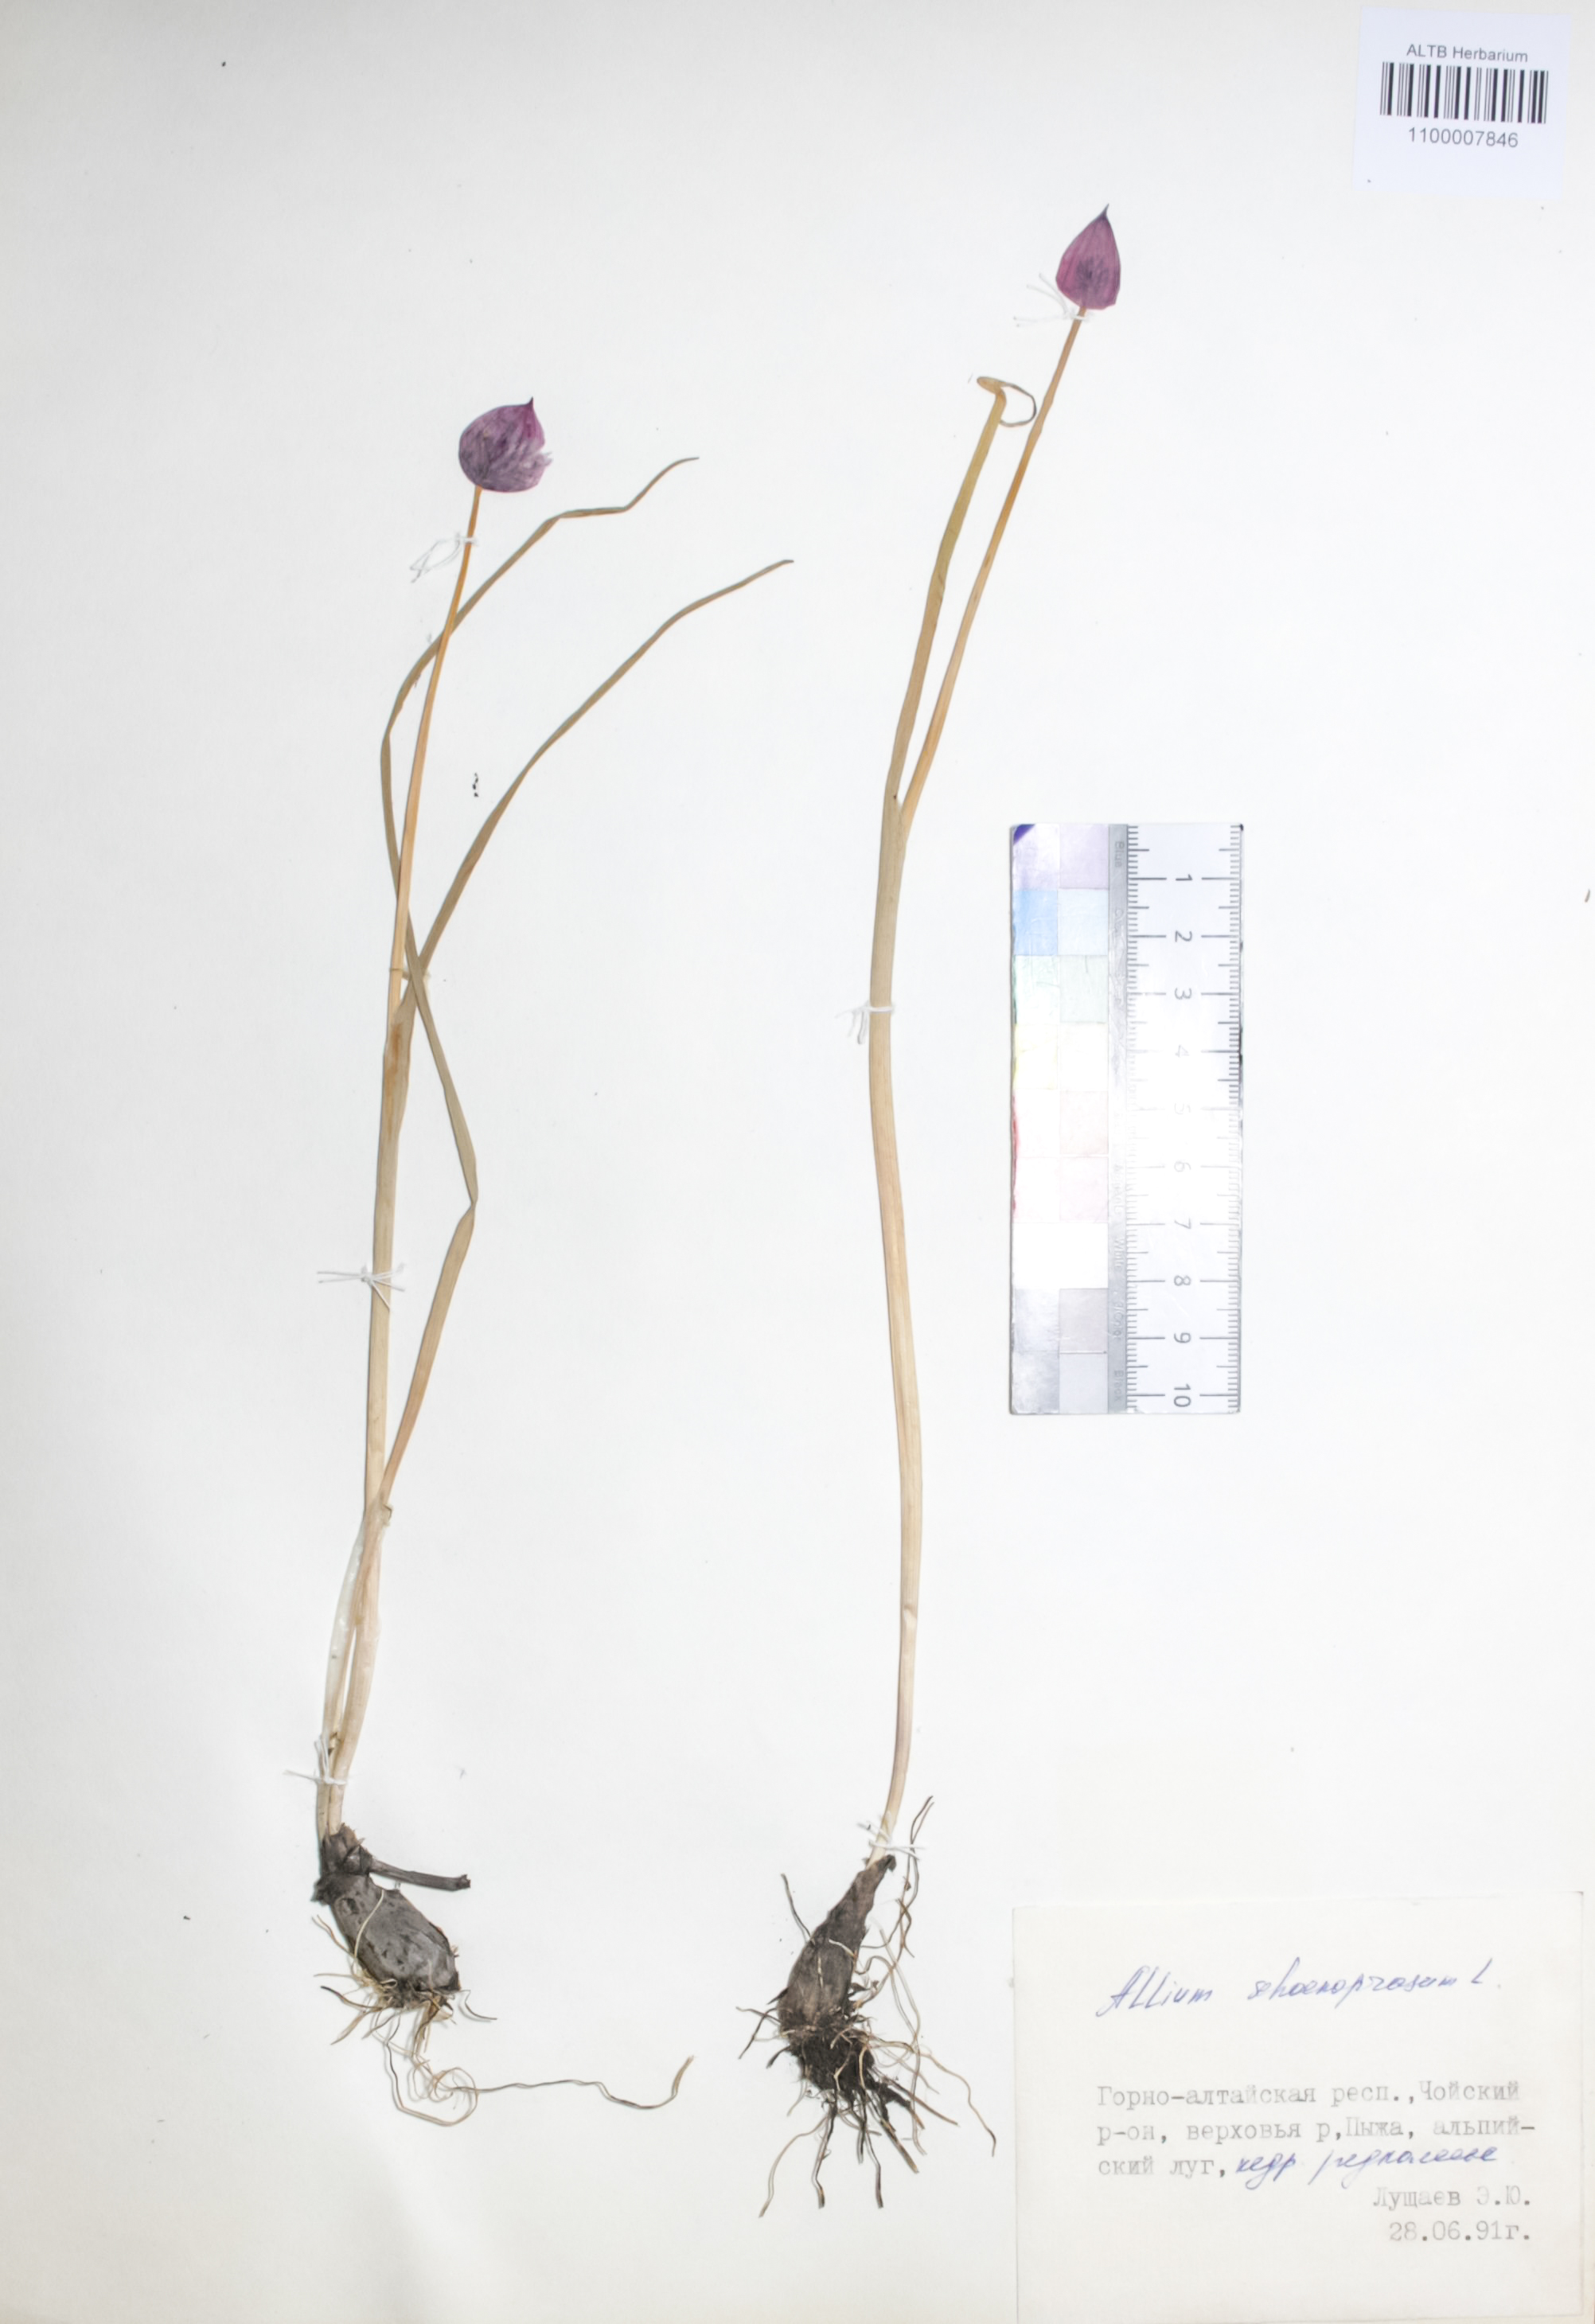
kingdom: Plantae
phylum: Tracheophyta
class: Liliopsida
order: Asparagales
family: Amaryllidaceae
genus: Allium
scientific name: Allium schoenoprasum
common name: Chives
